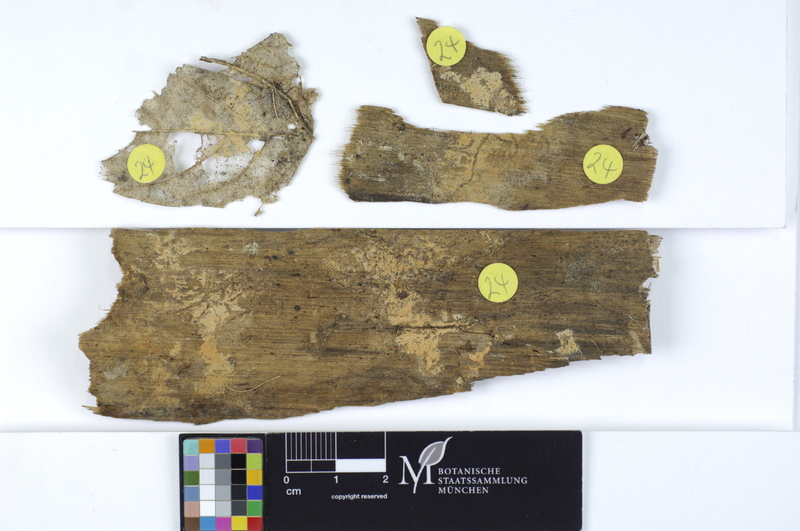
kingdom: Plantae
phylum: Tracheophyta
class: Pinopsida
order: Pinales
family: Pinaceae
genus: Pinus
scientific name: Pinus
